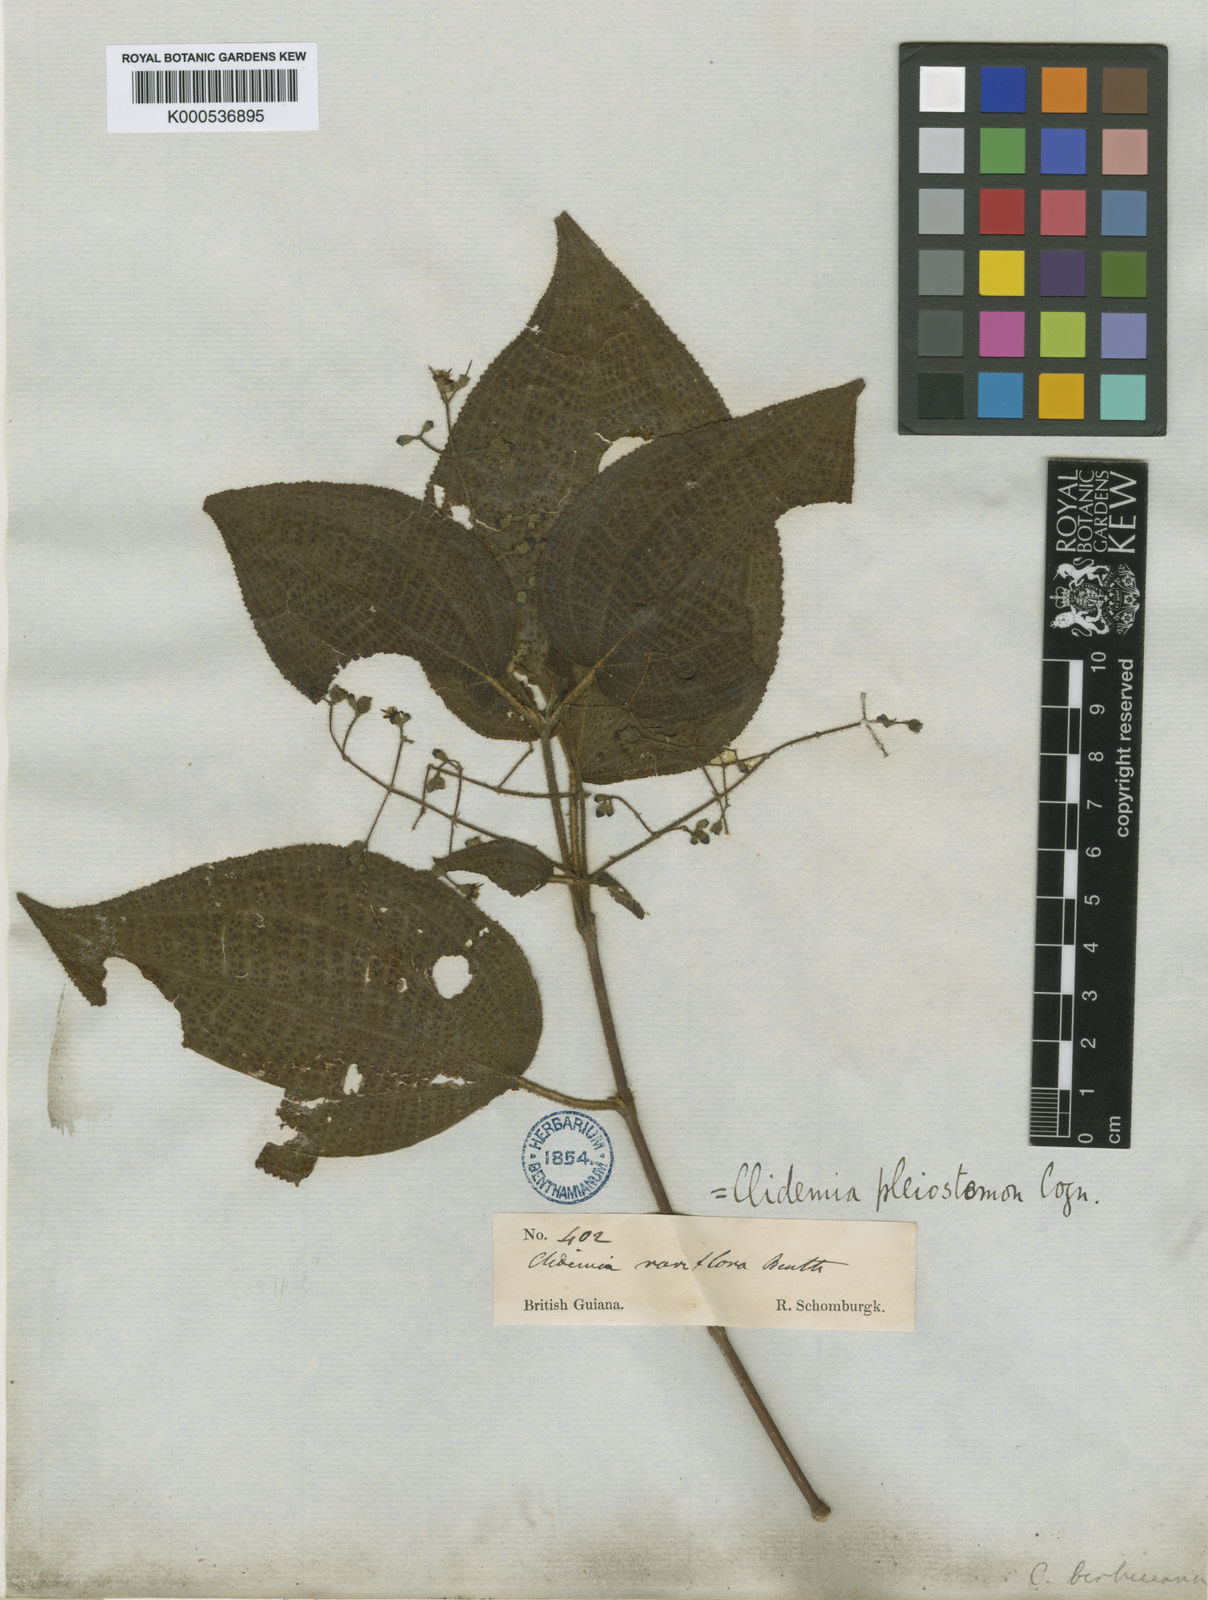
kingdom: Plantae
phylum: Tracheophyta
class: Magnoliopsida
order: Myrtales
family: Melastomataceae
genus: Miconia
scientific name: Miconia bullosa
